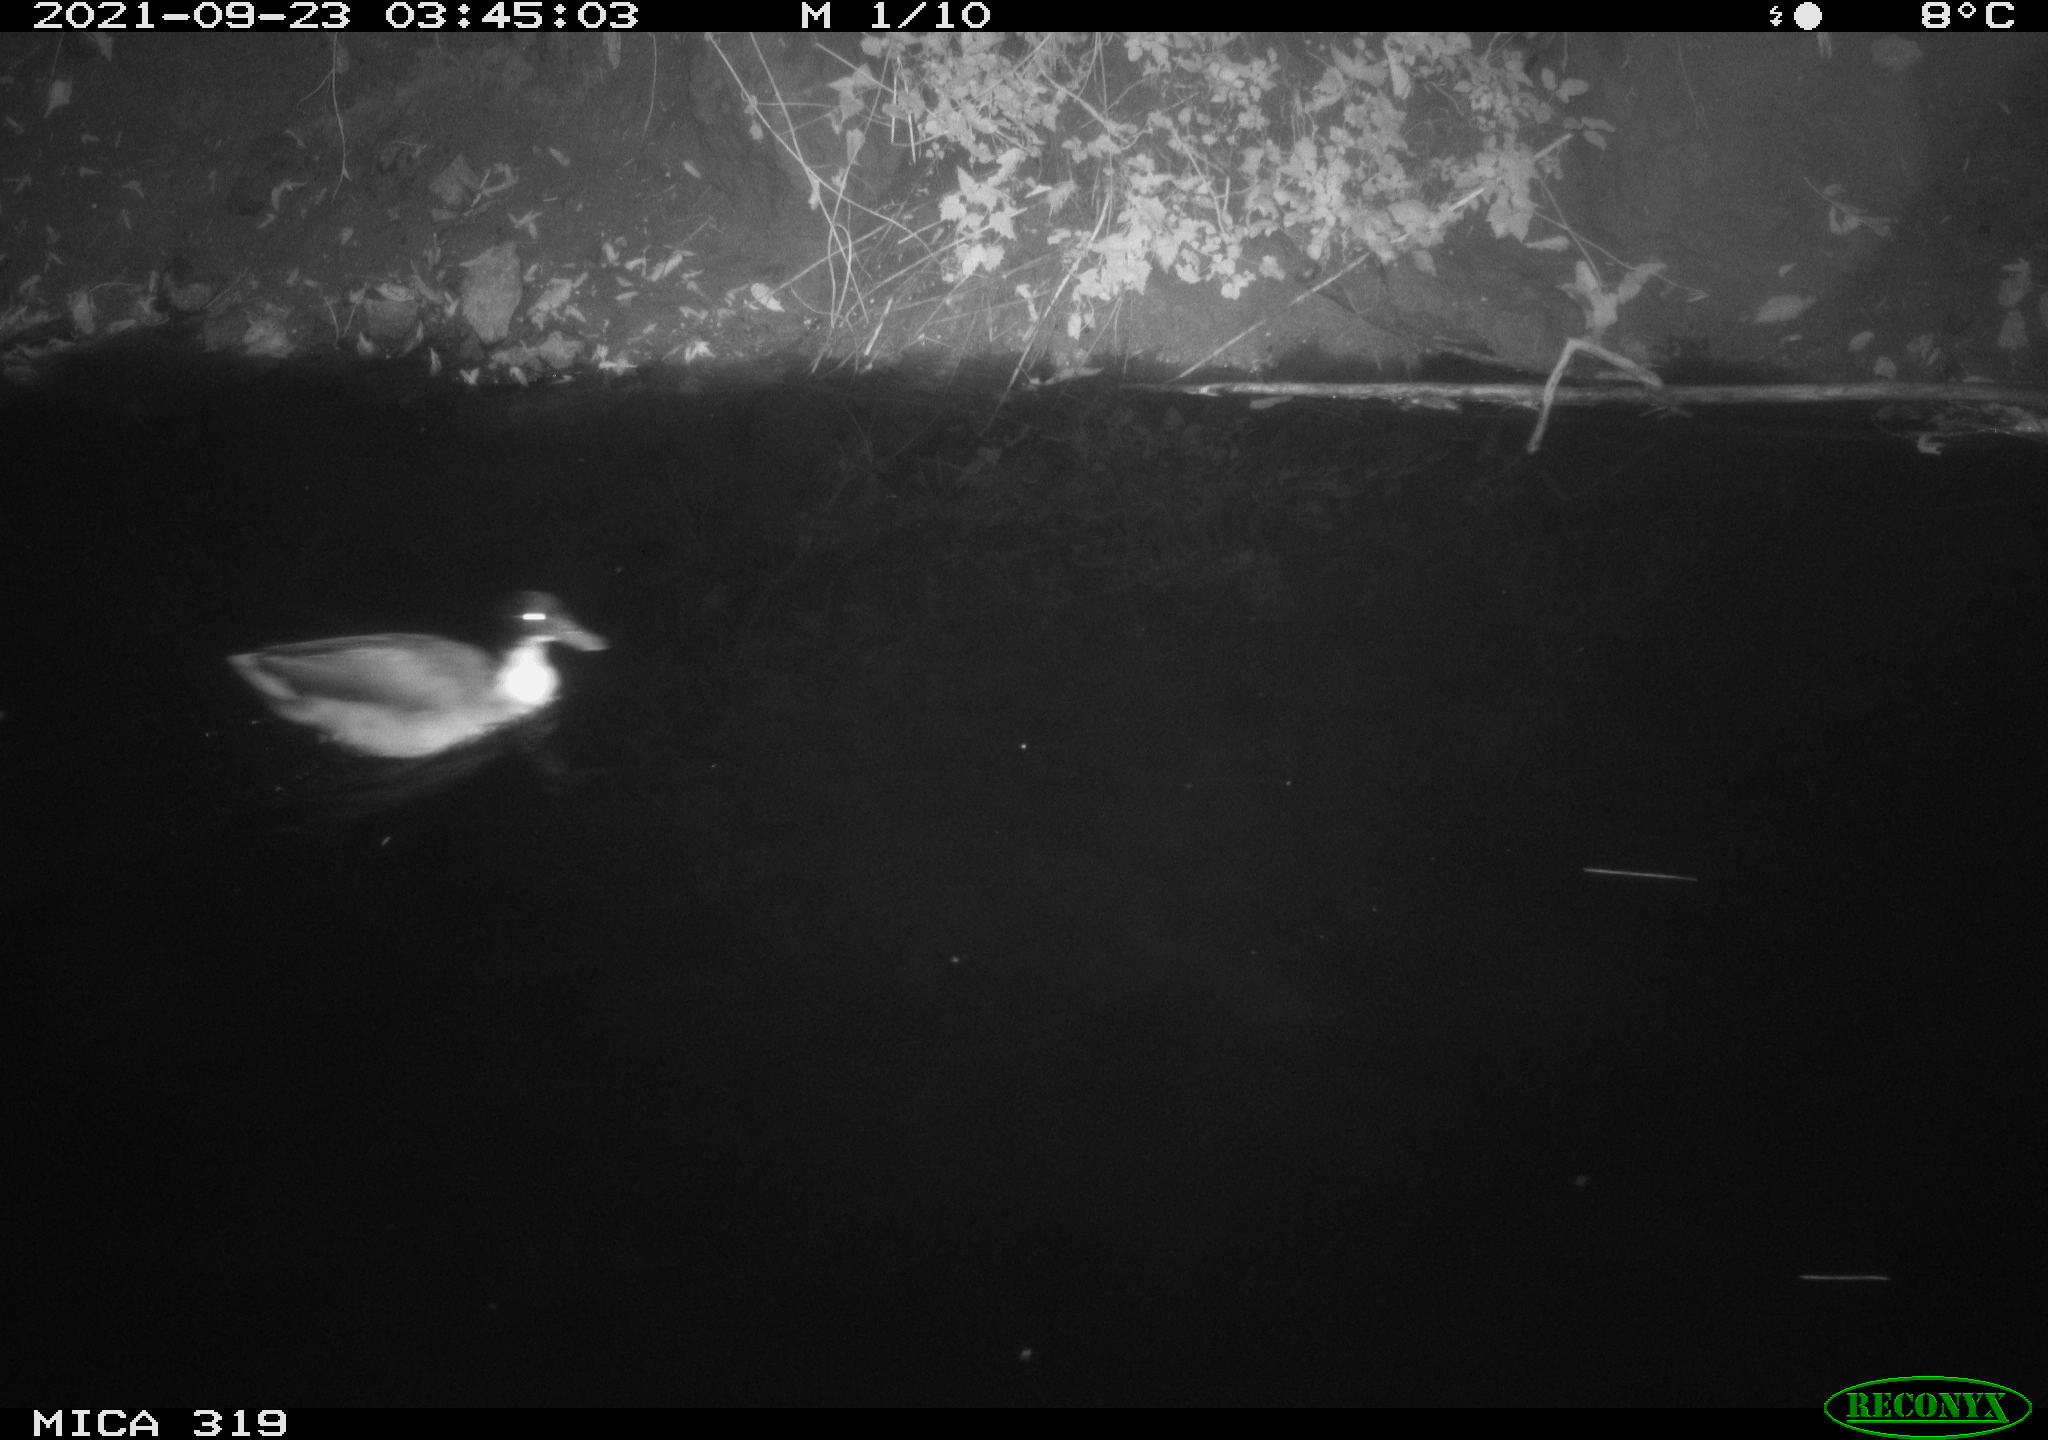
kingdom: Animalia
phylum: Chordata
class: Aves
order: Anseriformes
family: Anatidae
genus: Anas
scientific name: Anas platyrhynchos
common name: Mallard
